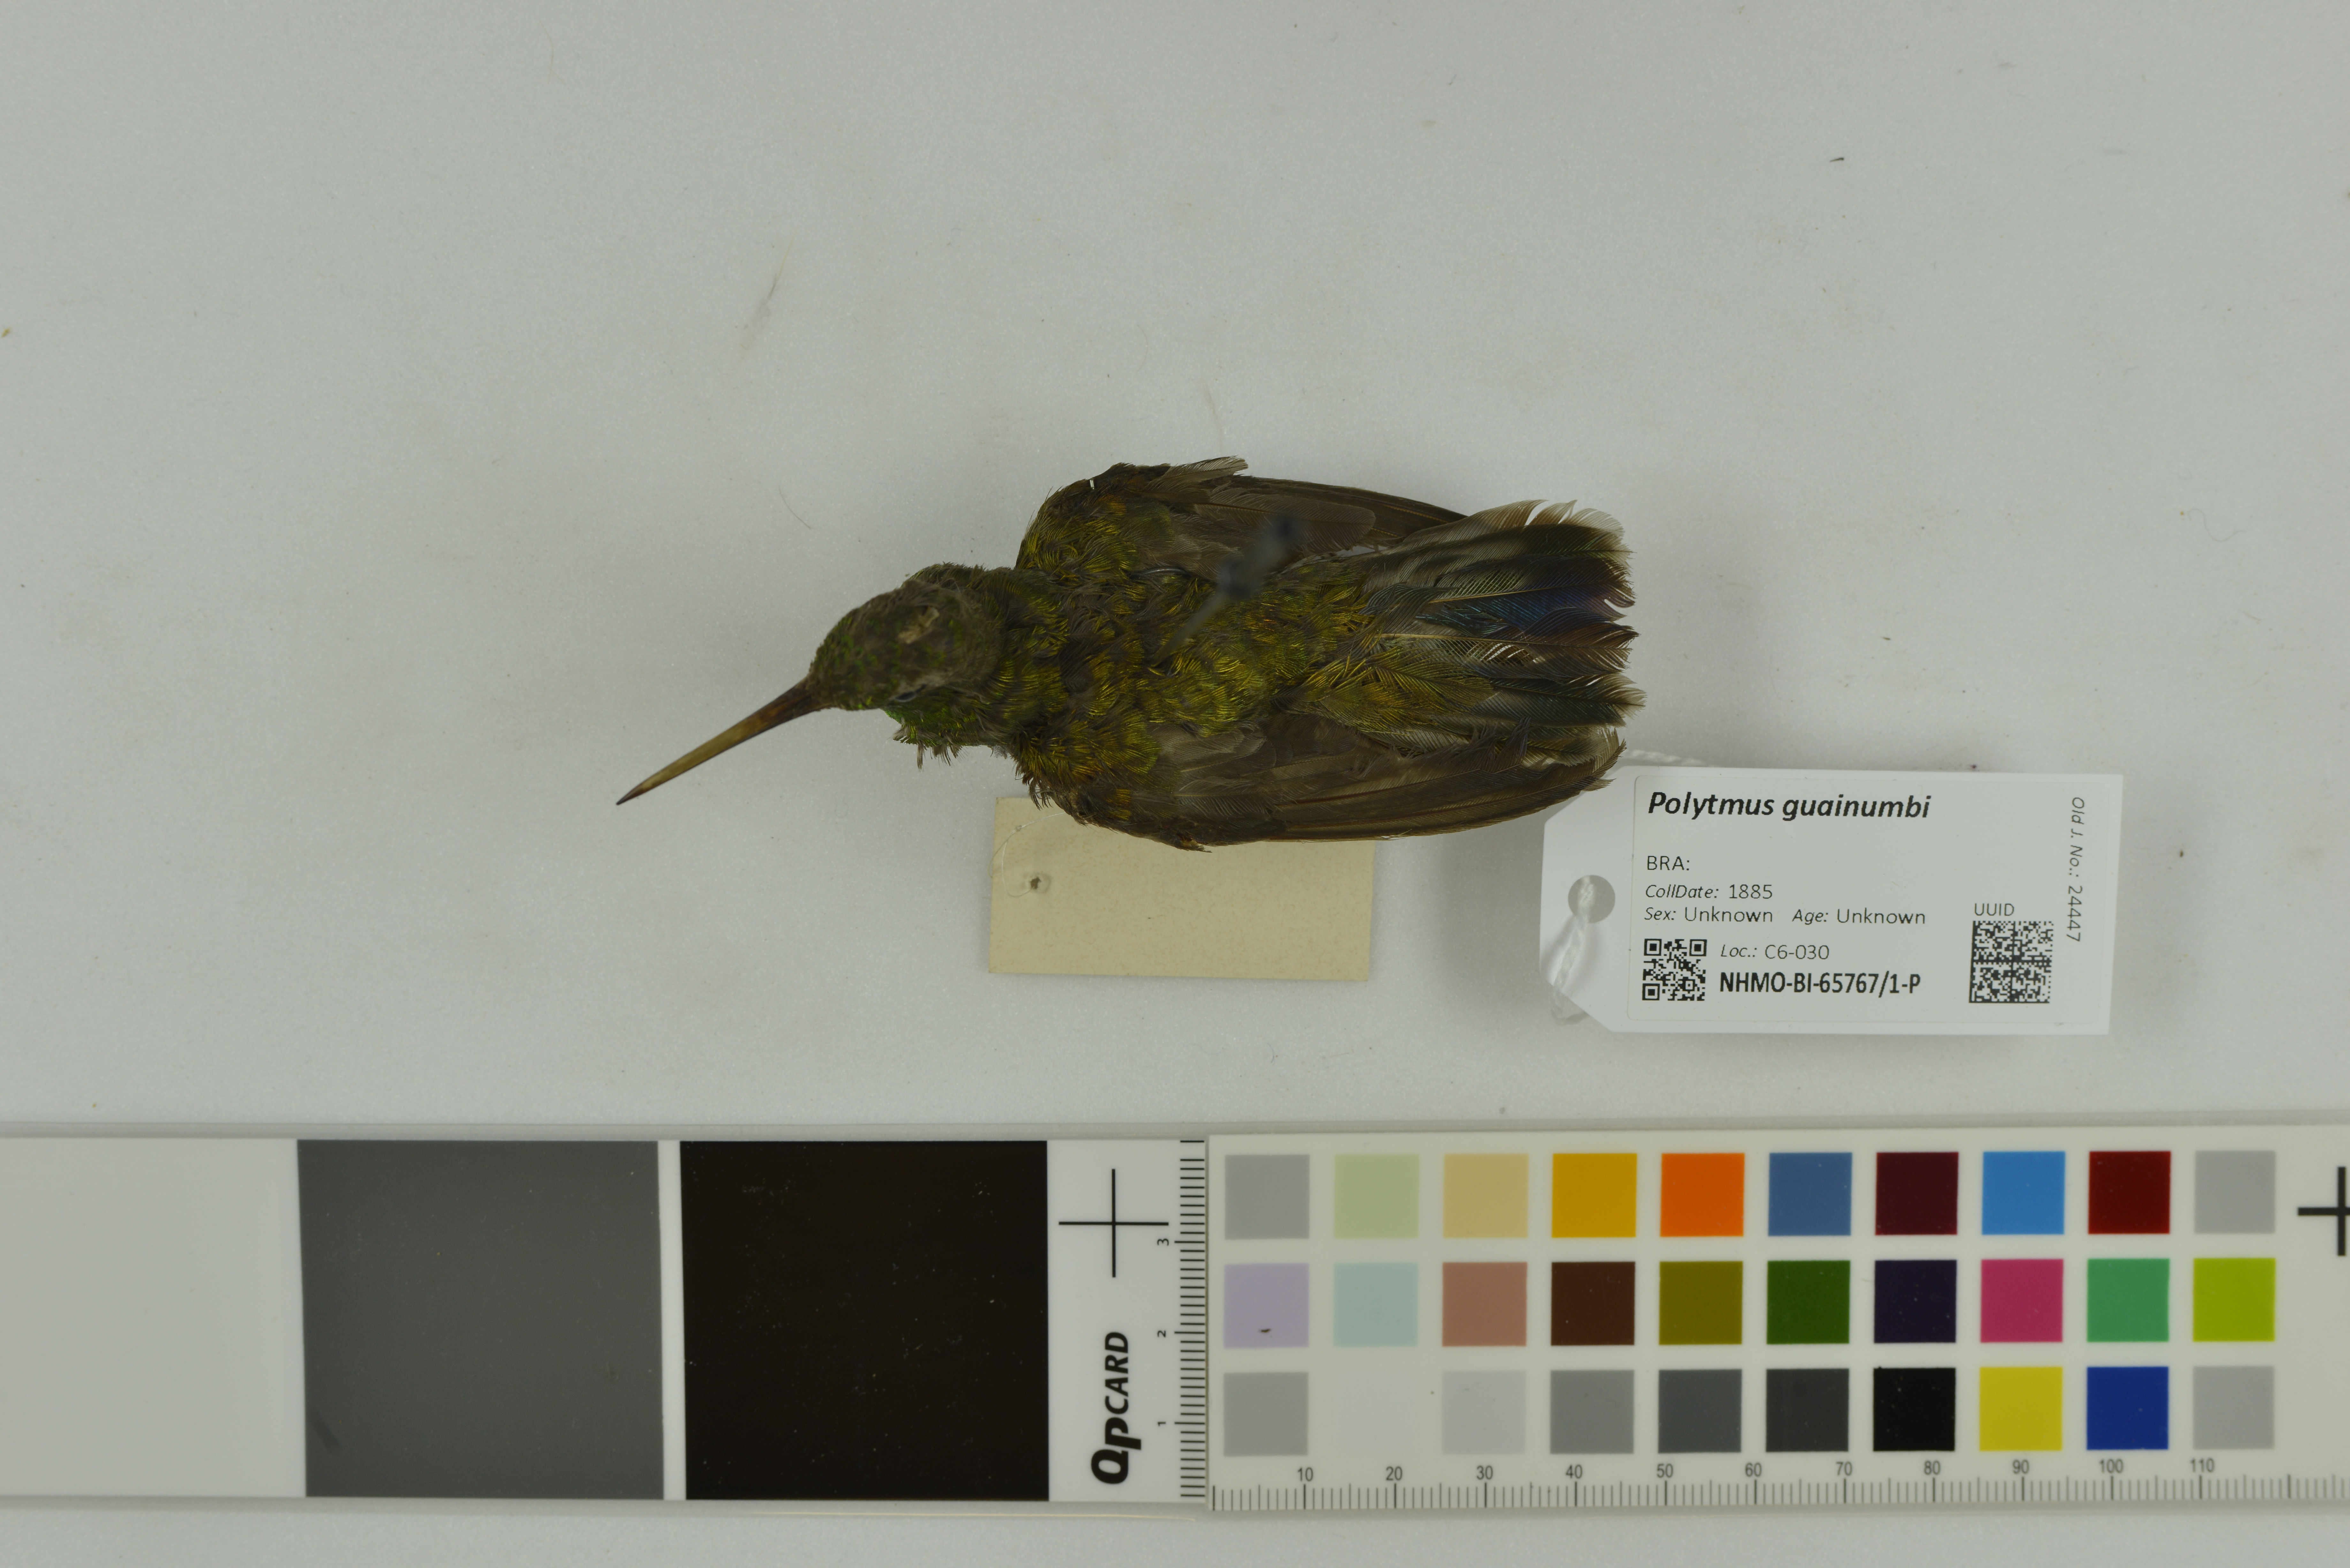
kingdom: Animalia
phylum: Chordata
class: Aves
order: Apodiformes
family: Trochilidae
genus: Polytmus
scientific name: Polytmus guainumbi
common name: White-tailed goldenthroat
